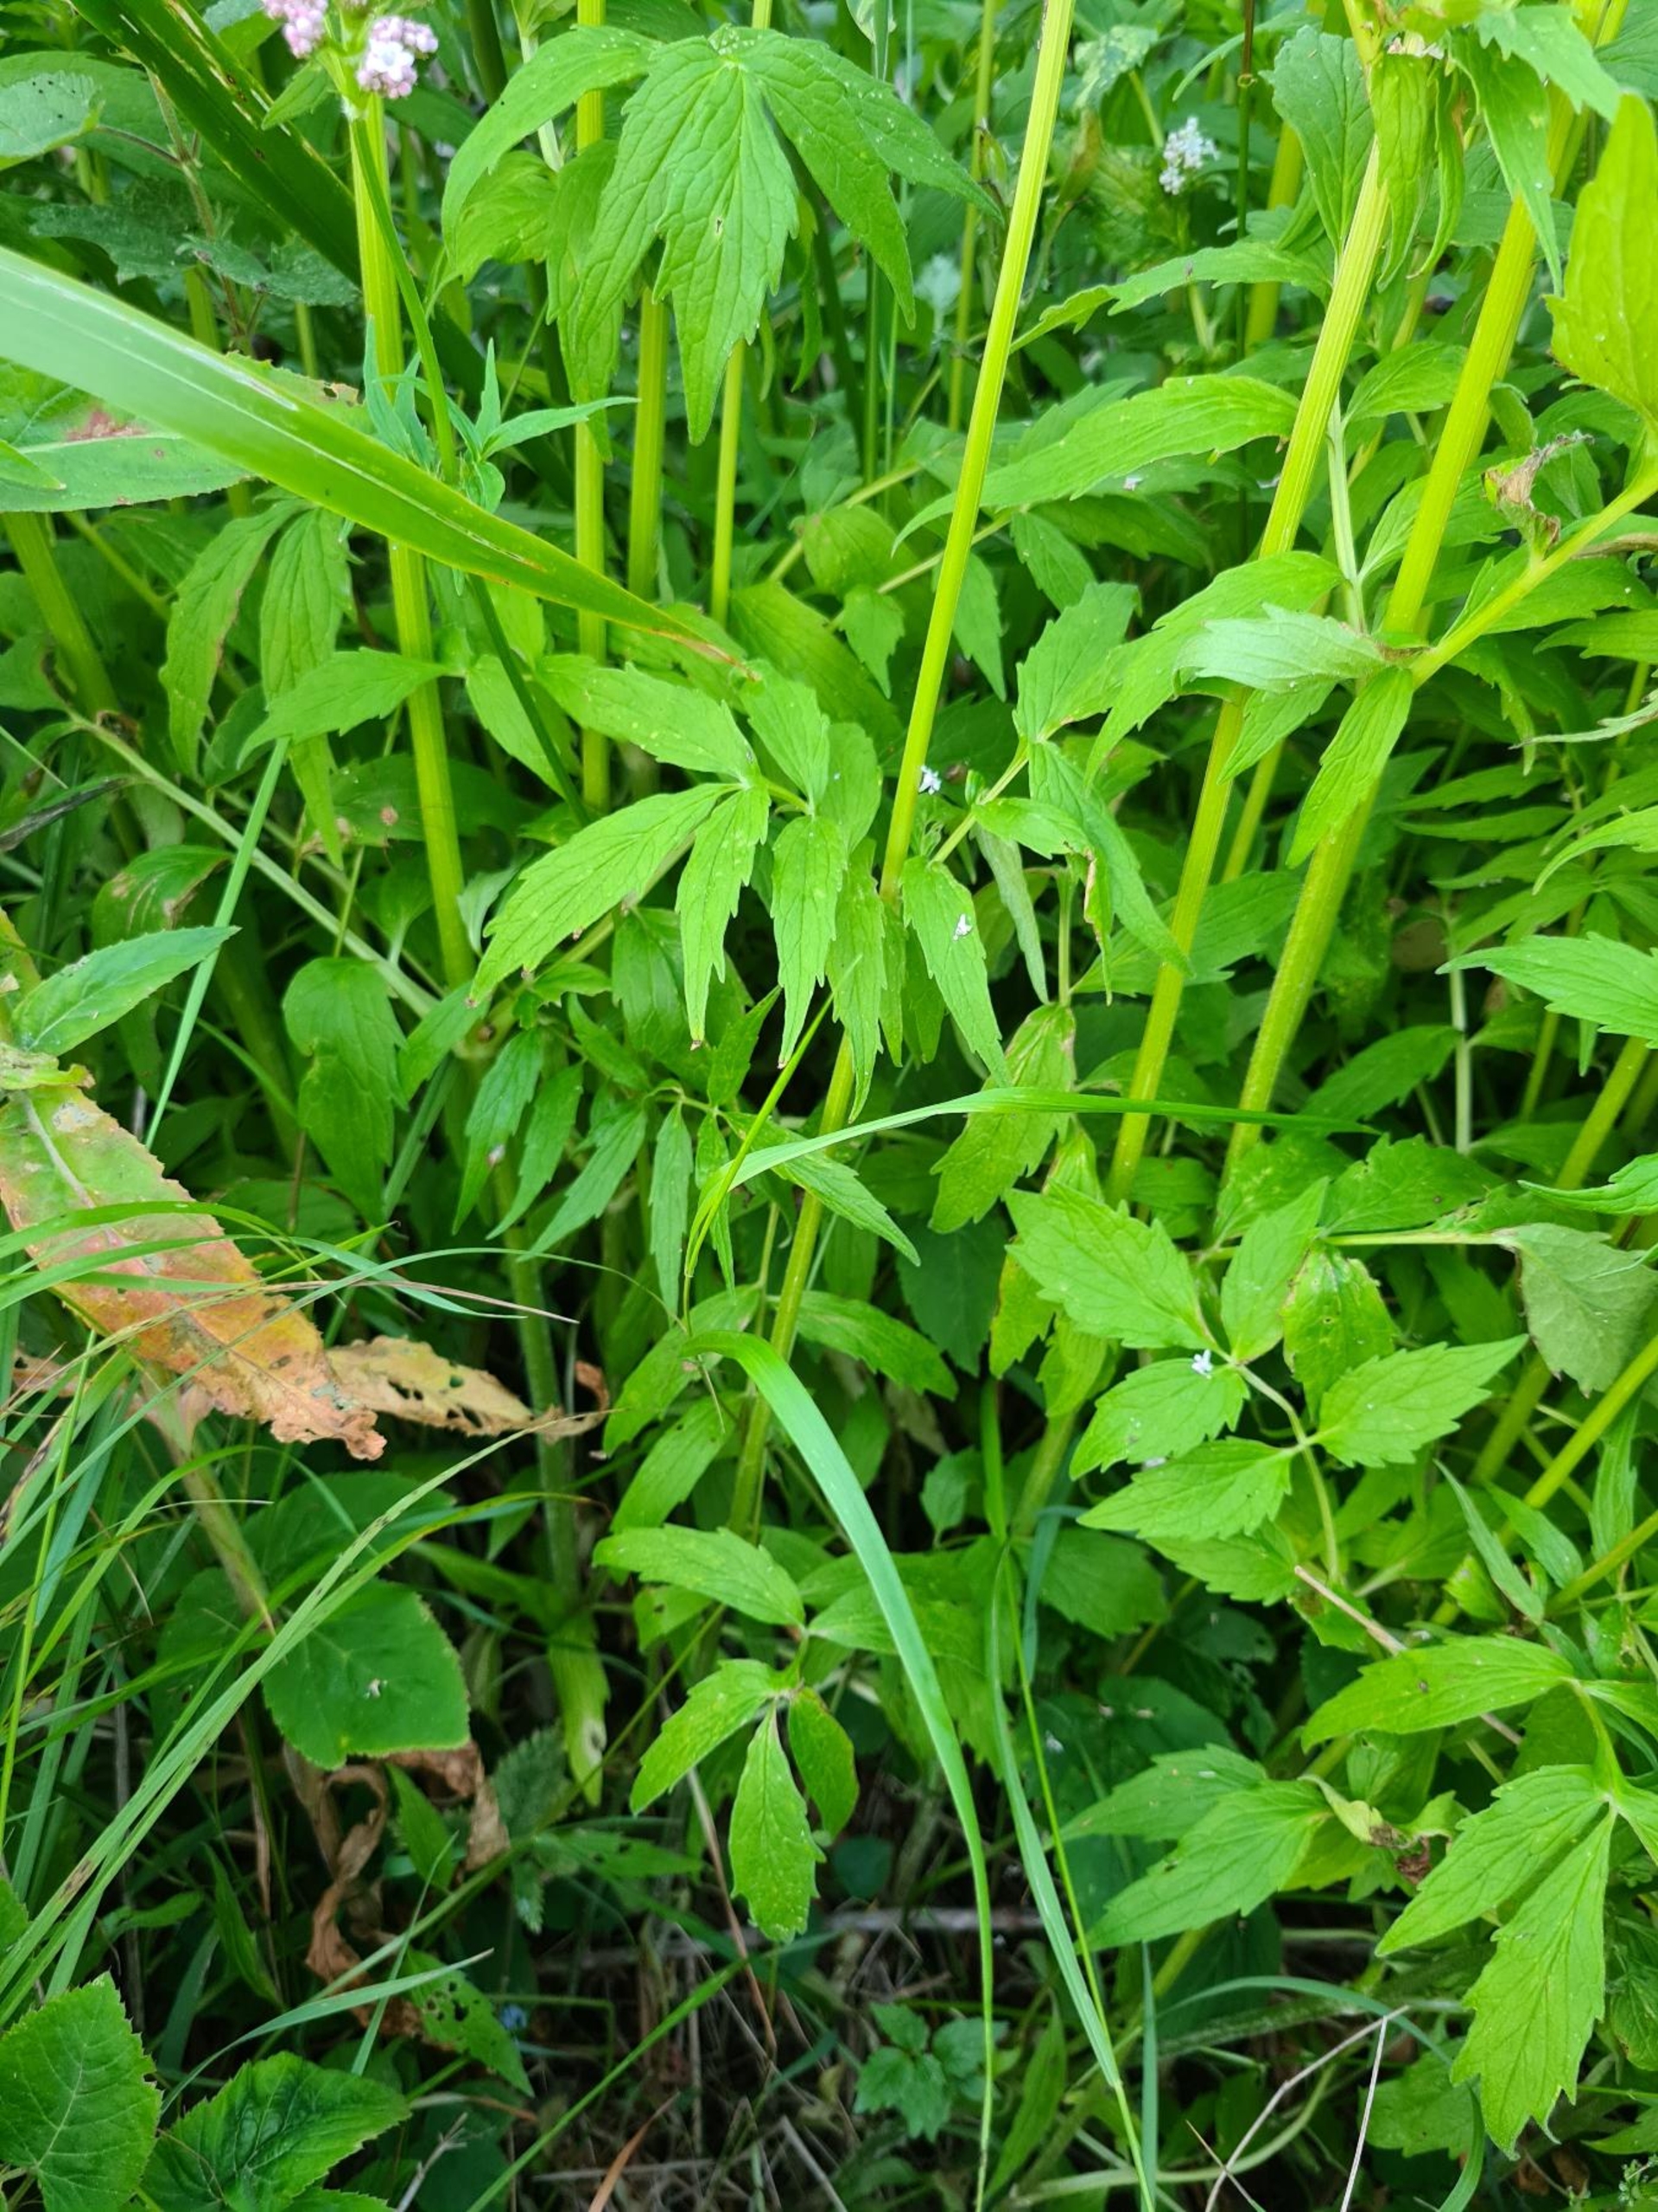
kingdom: Plantae
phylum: Tracheophyta
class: Magnoliopsida
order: Dipsacales
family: Caprifoliaceae
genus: Valeriana
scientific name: Valeriana sambucifolia
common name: Hyldebladet baldrian
